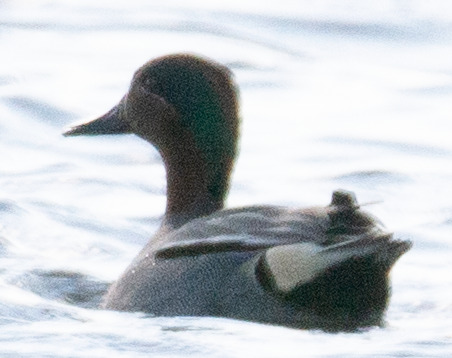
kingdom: Animalia
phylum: Chordata
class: Aves
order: Anseriformes
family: Anatidae
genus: Anas
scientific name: Anas crecca
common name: Krikand
